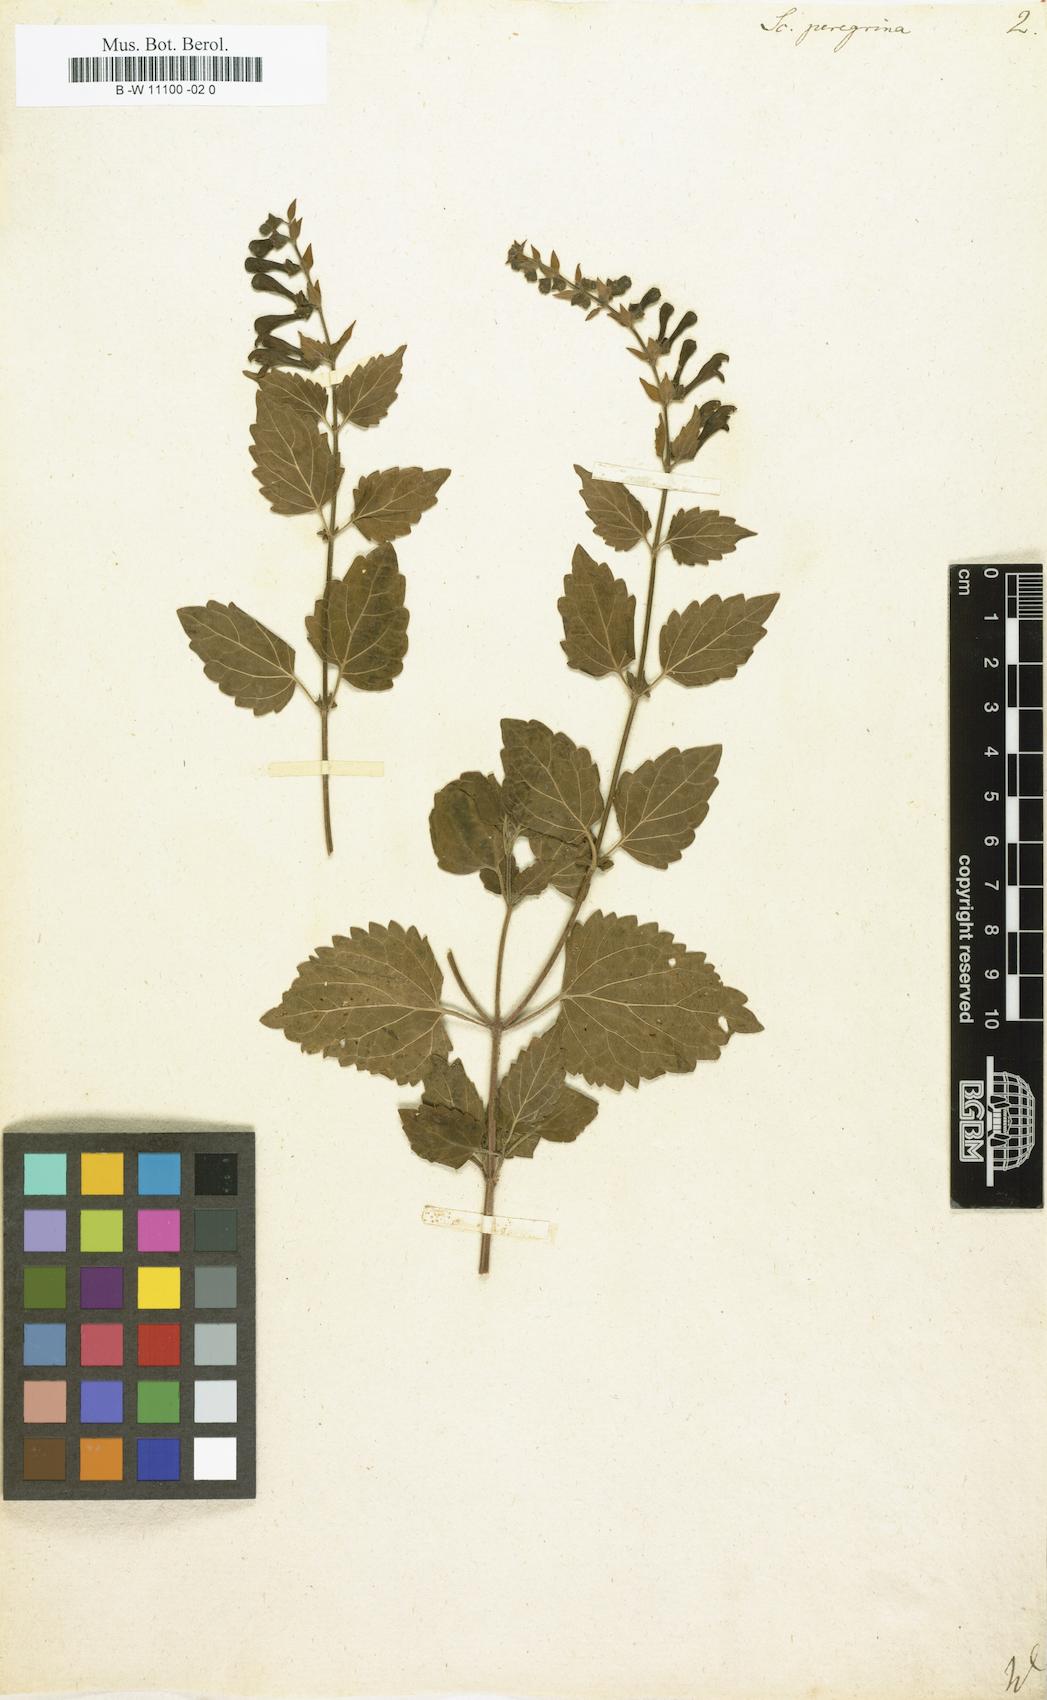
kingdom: Plantae
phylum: Tracheophyta
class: Magnoliopsida
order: Lamiales
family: Lamiaceae
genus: Scutellaria
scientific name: Scutellaria peregrina
